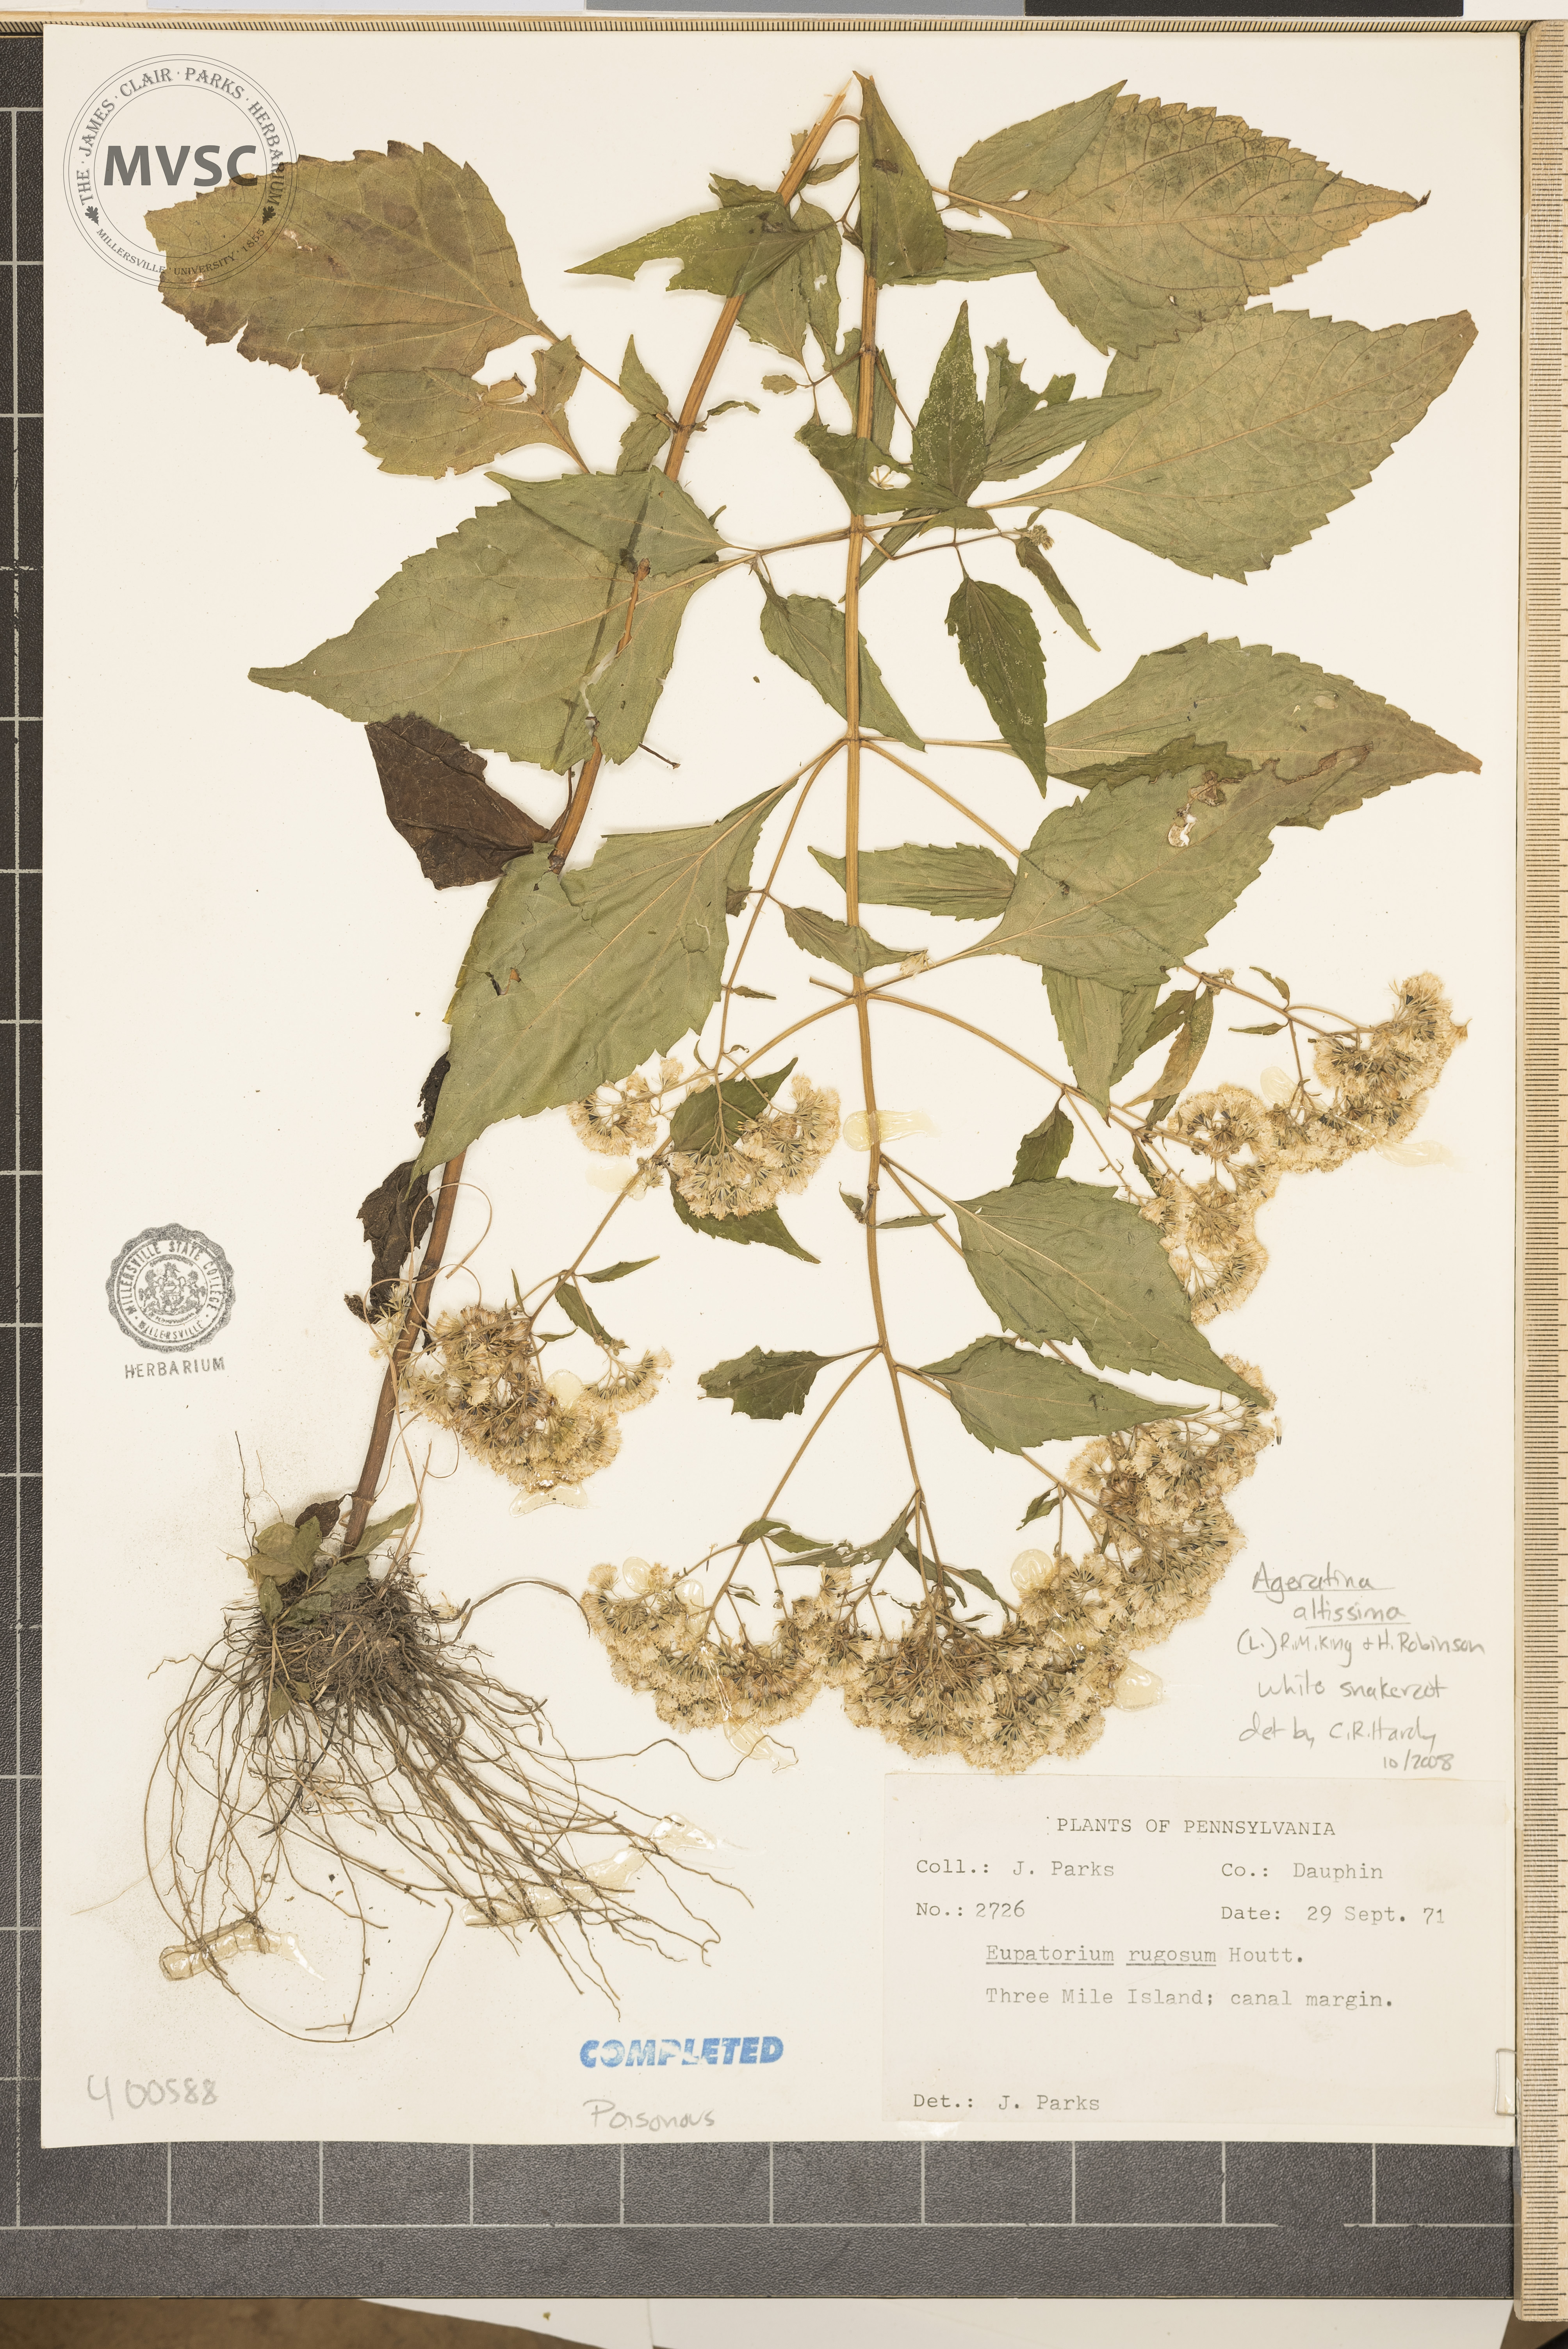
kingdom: Plantae
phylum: Tracheophyta
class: Magnoliopsida
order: Asterales
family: Asteraceae
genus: Ageratina
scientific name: Ageratina altissima
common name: White snakeroot
